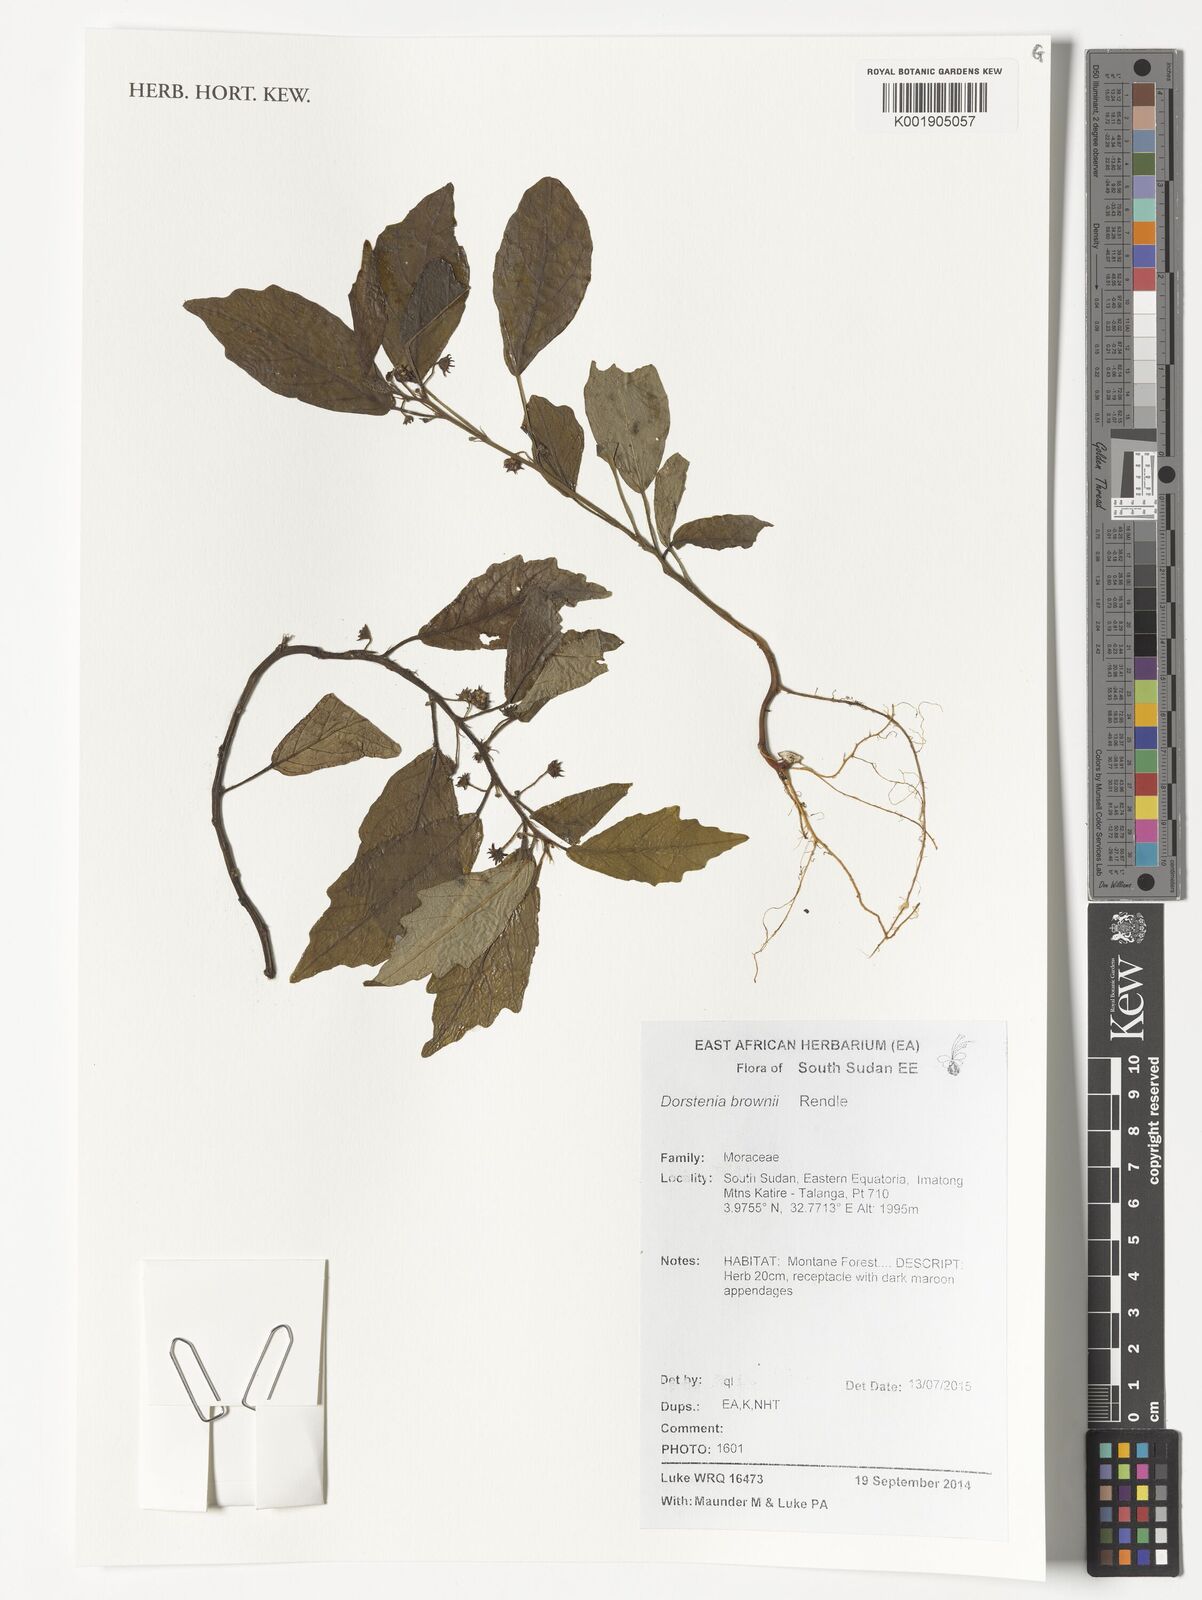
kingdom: Plantae
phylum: Tracheophyta
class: Magnoliopsida
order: Rosales
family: Moraceae
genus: Dorstenia
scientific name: Dorstenia brownii
